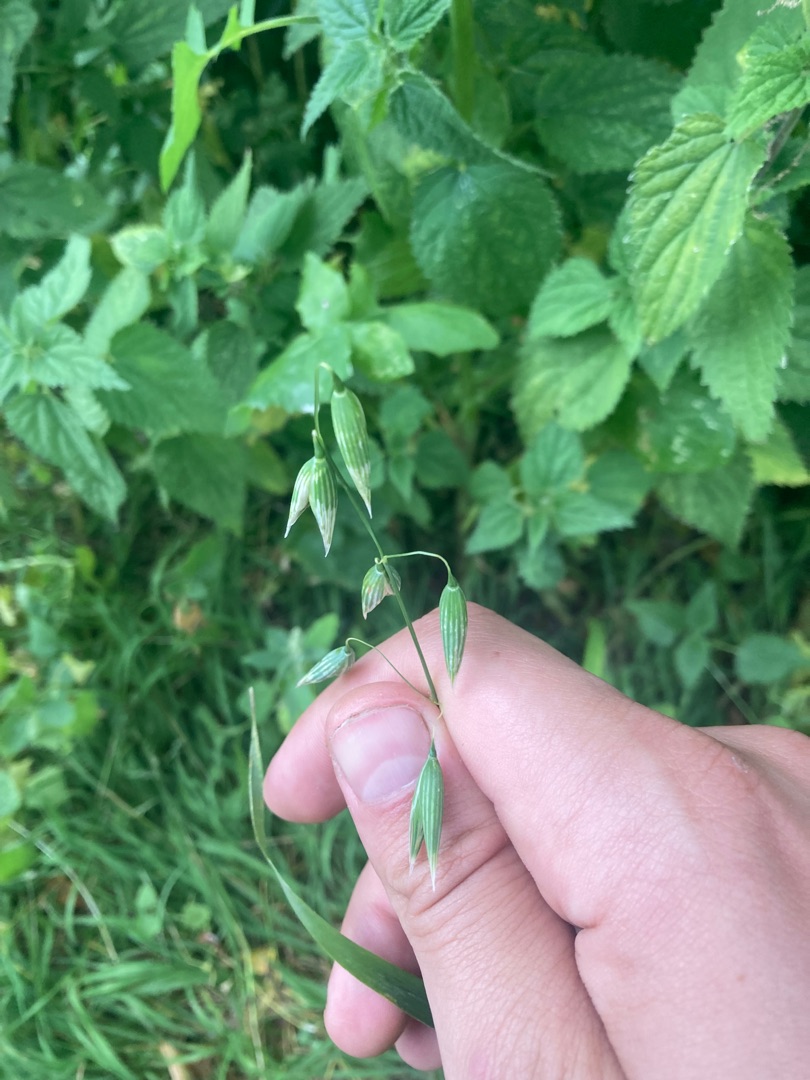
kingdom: Plantae
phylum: Tracheophyta
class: Liliopsida
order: Poales
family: Poaceae
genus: Avena
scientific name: Avena sativa
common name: Almindelig havre
